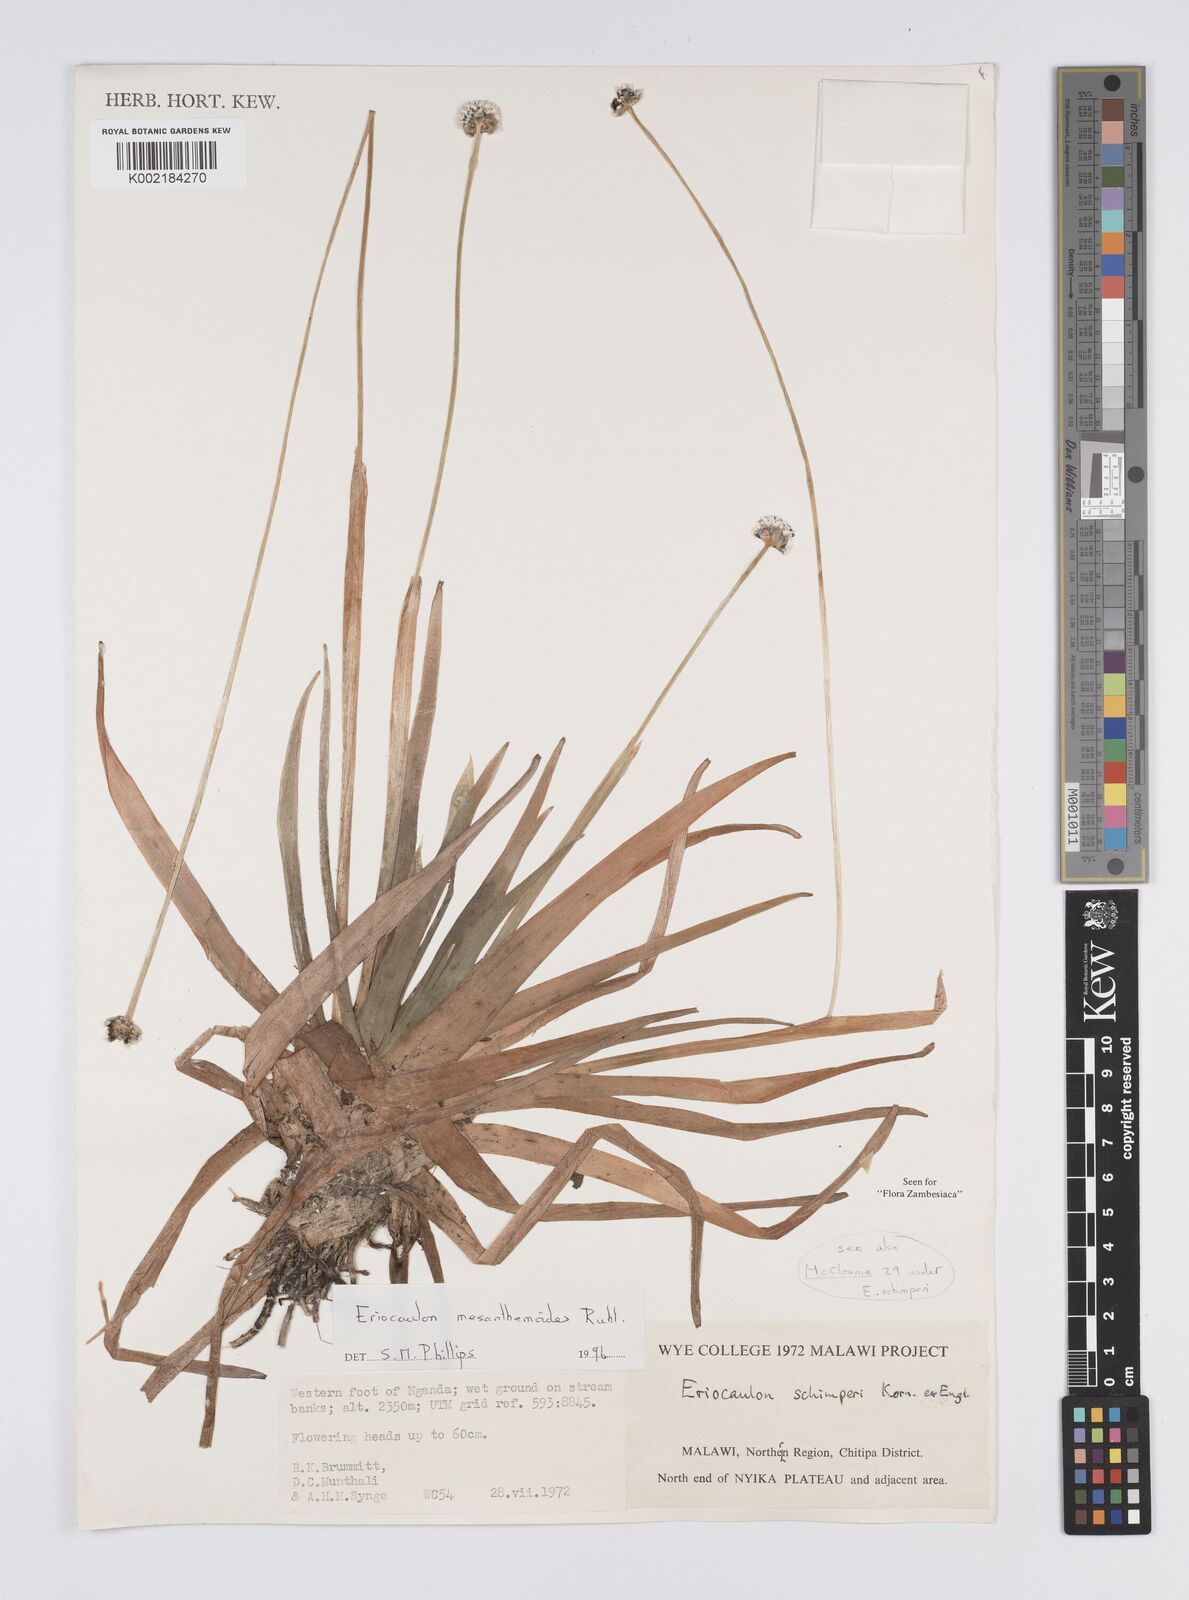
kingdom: Plantae
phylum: Tracheophyta
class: Liliopsida
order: Poales
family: Eriocaulaceae
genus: Eriocaulon
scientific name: Eriocaulon mesanthemoides
